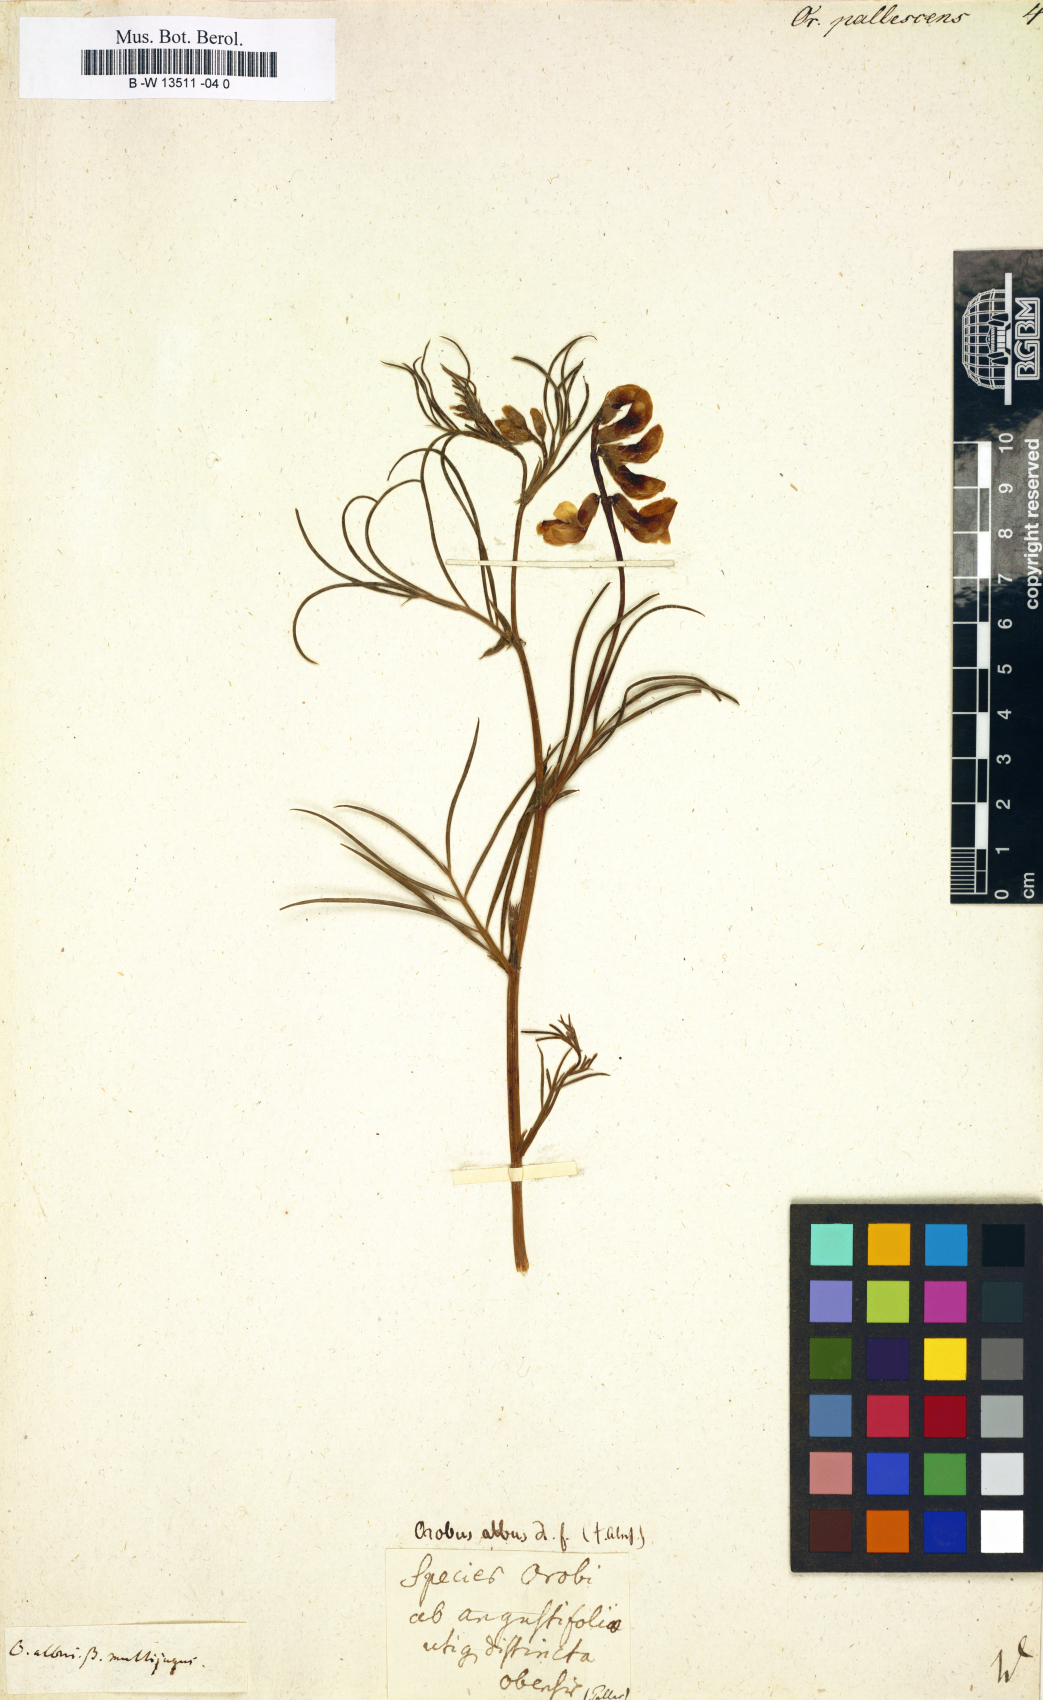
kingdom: Plantae
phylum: Tracheophyta
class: Magnoliopsida
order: Fabales
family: Fabaceae
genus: Lathyrus
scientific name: Lathyrus pallescens
